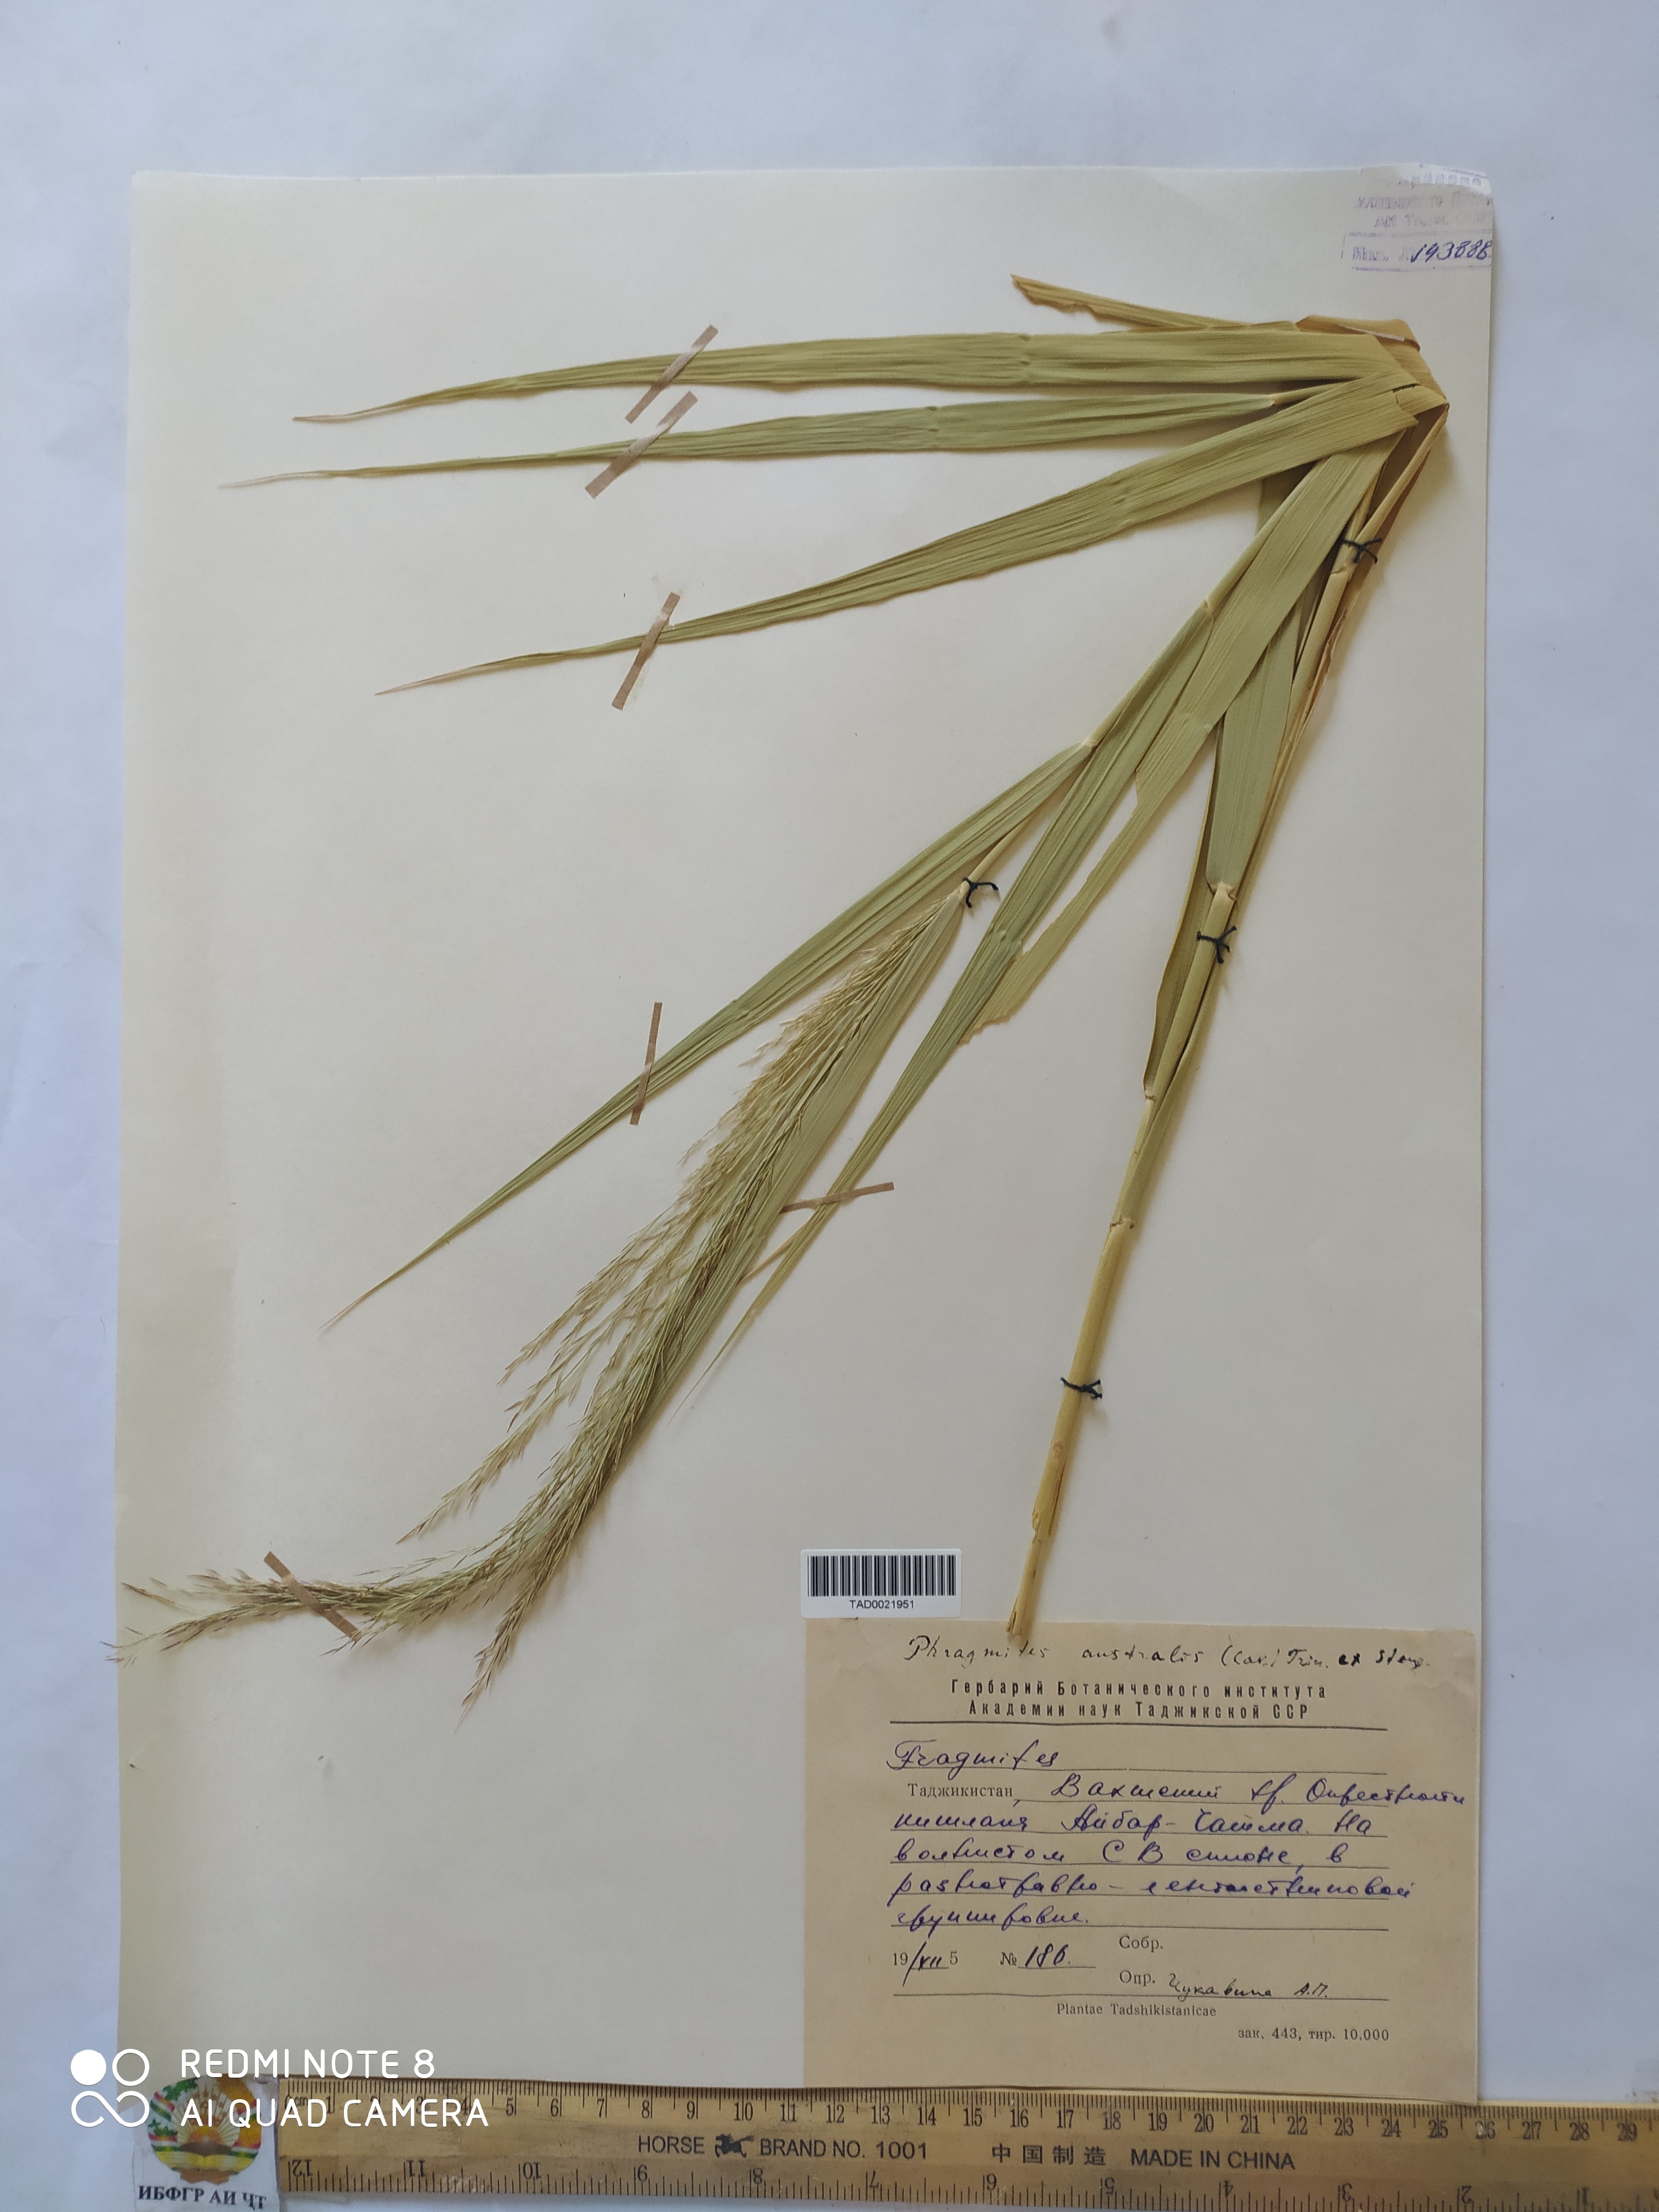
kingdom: Plantae
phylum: Tracheophyta
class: Liliopsida
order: Poales
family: Poaceae
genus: Phragmites
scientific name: Phragmites australis
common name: Common reed
